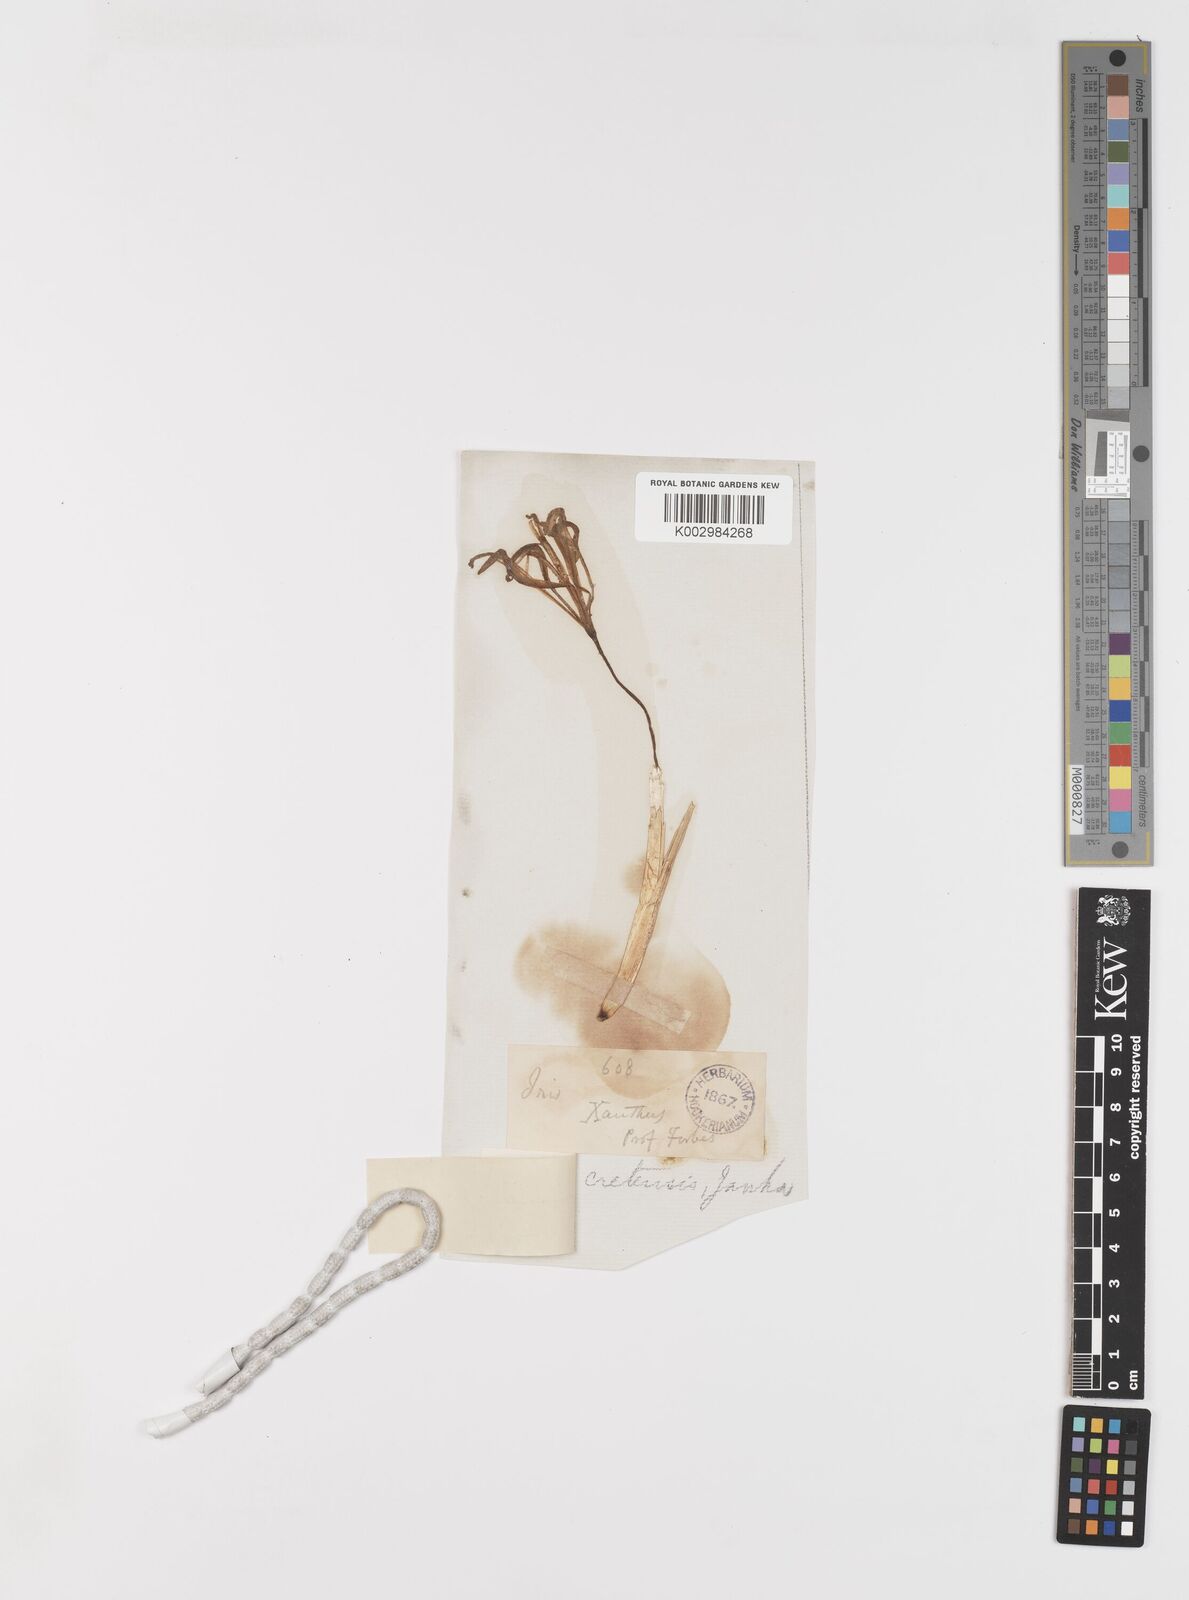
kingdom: Plantae
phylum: Tracheophyta
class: Liliopsida
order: Asparagales
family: Iridaceae
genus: Iris
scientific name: Iris unguicularis
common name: Algerian iris
